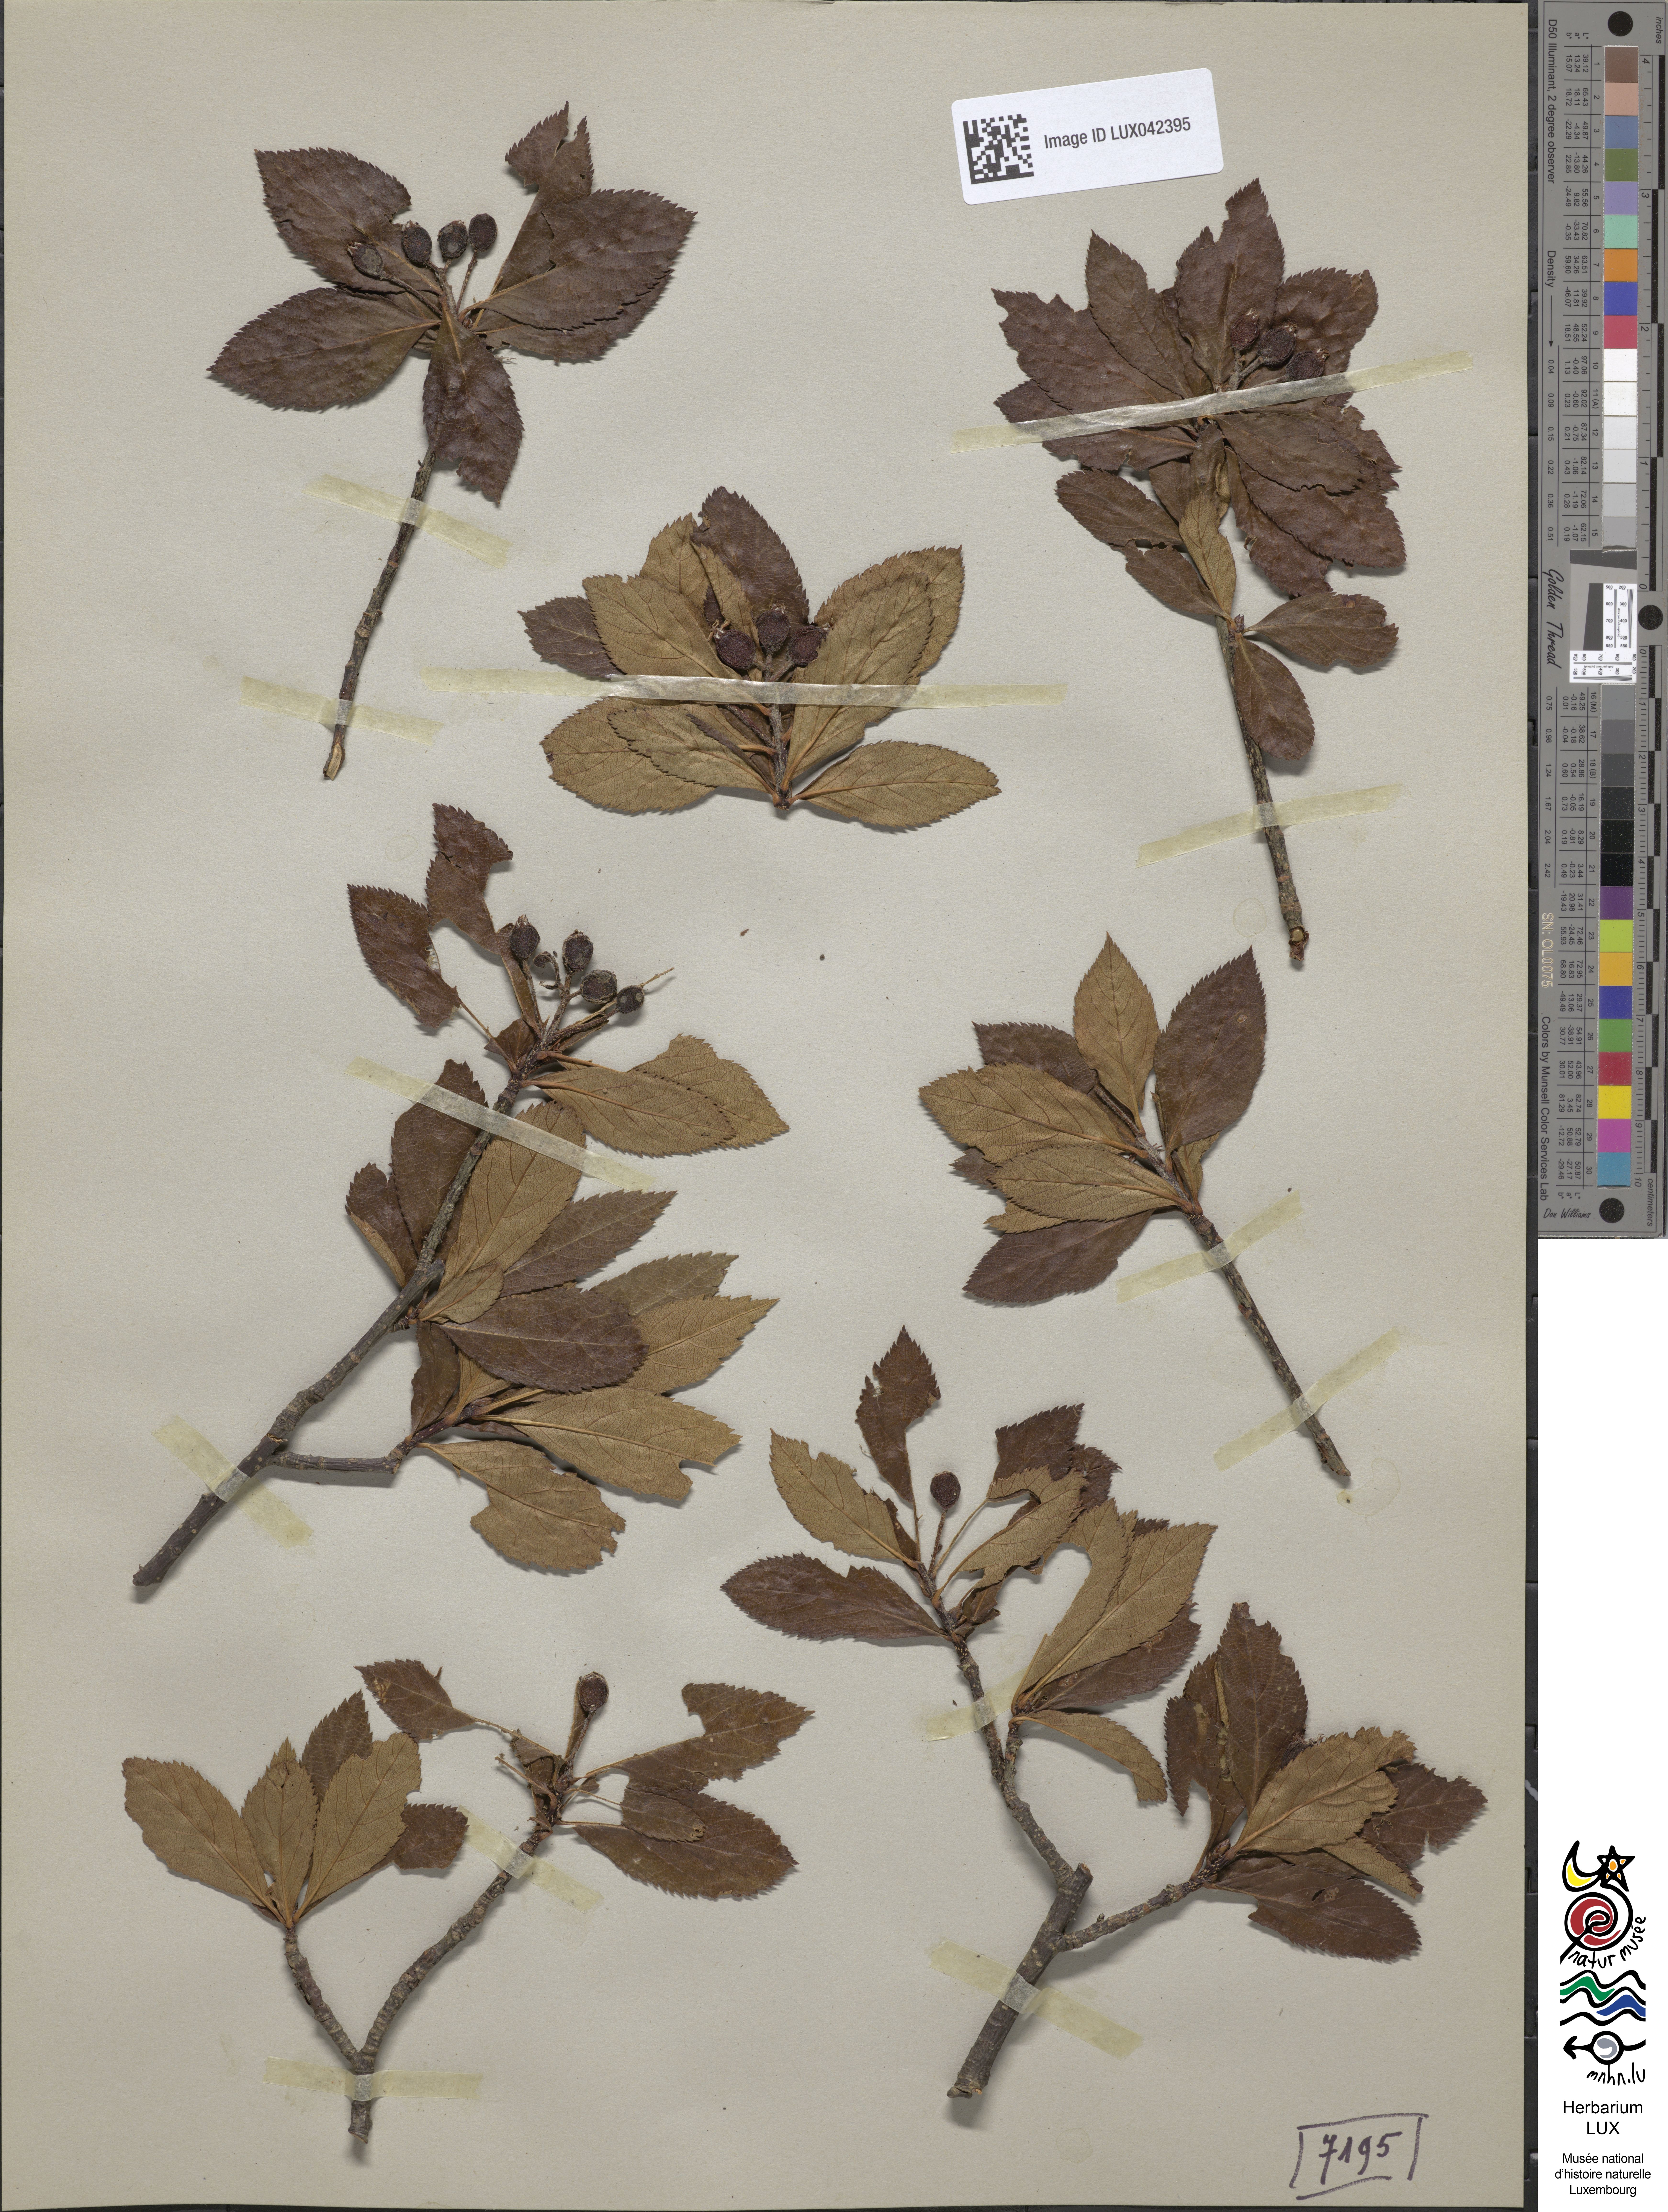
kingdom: Plantae
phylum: Tracheophyta
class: Magnoliopsida
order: Rosales
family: Rosaceae
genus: Chamaemespilus
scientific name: Chamaemespilus alpina
